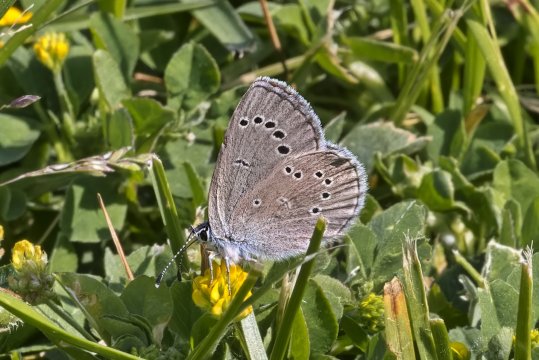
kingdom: Animalia
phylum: Arthropoda
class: Insecta
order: Lepidoptera
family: Lycaenidae
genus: Glaucopsyche
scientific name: Glaucopsyche lygdamus
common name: Silvery Blue
